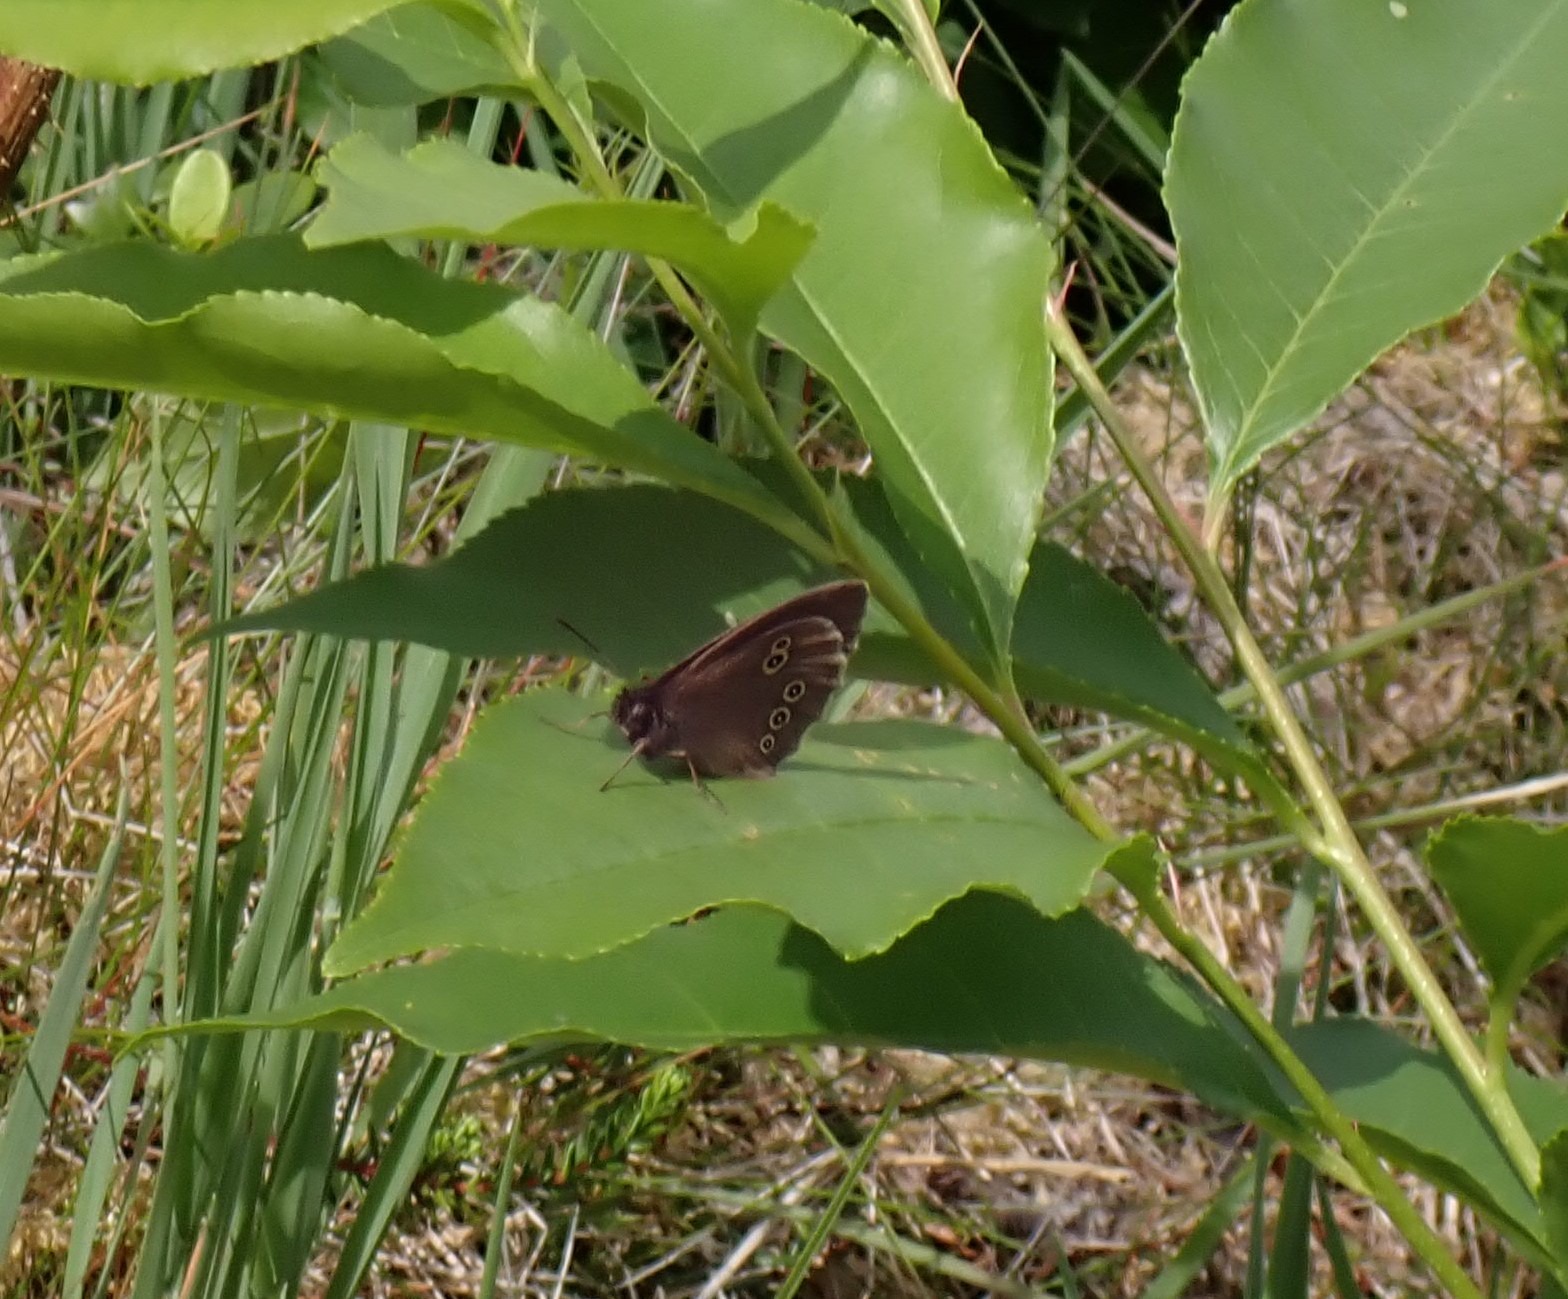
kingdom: Animalia
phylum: Arthropoda
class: Insecta
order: Lepidoptera
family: Nymphalidae
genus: Aphantopus
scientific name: Aphantopus hyperantus
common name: Engrandøje
